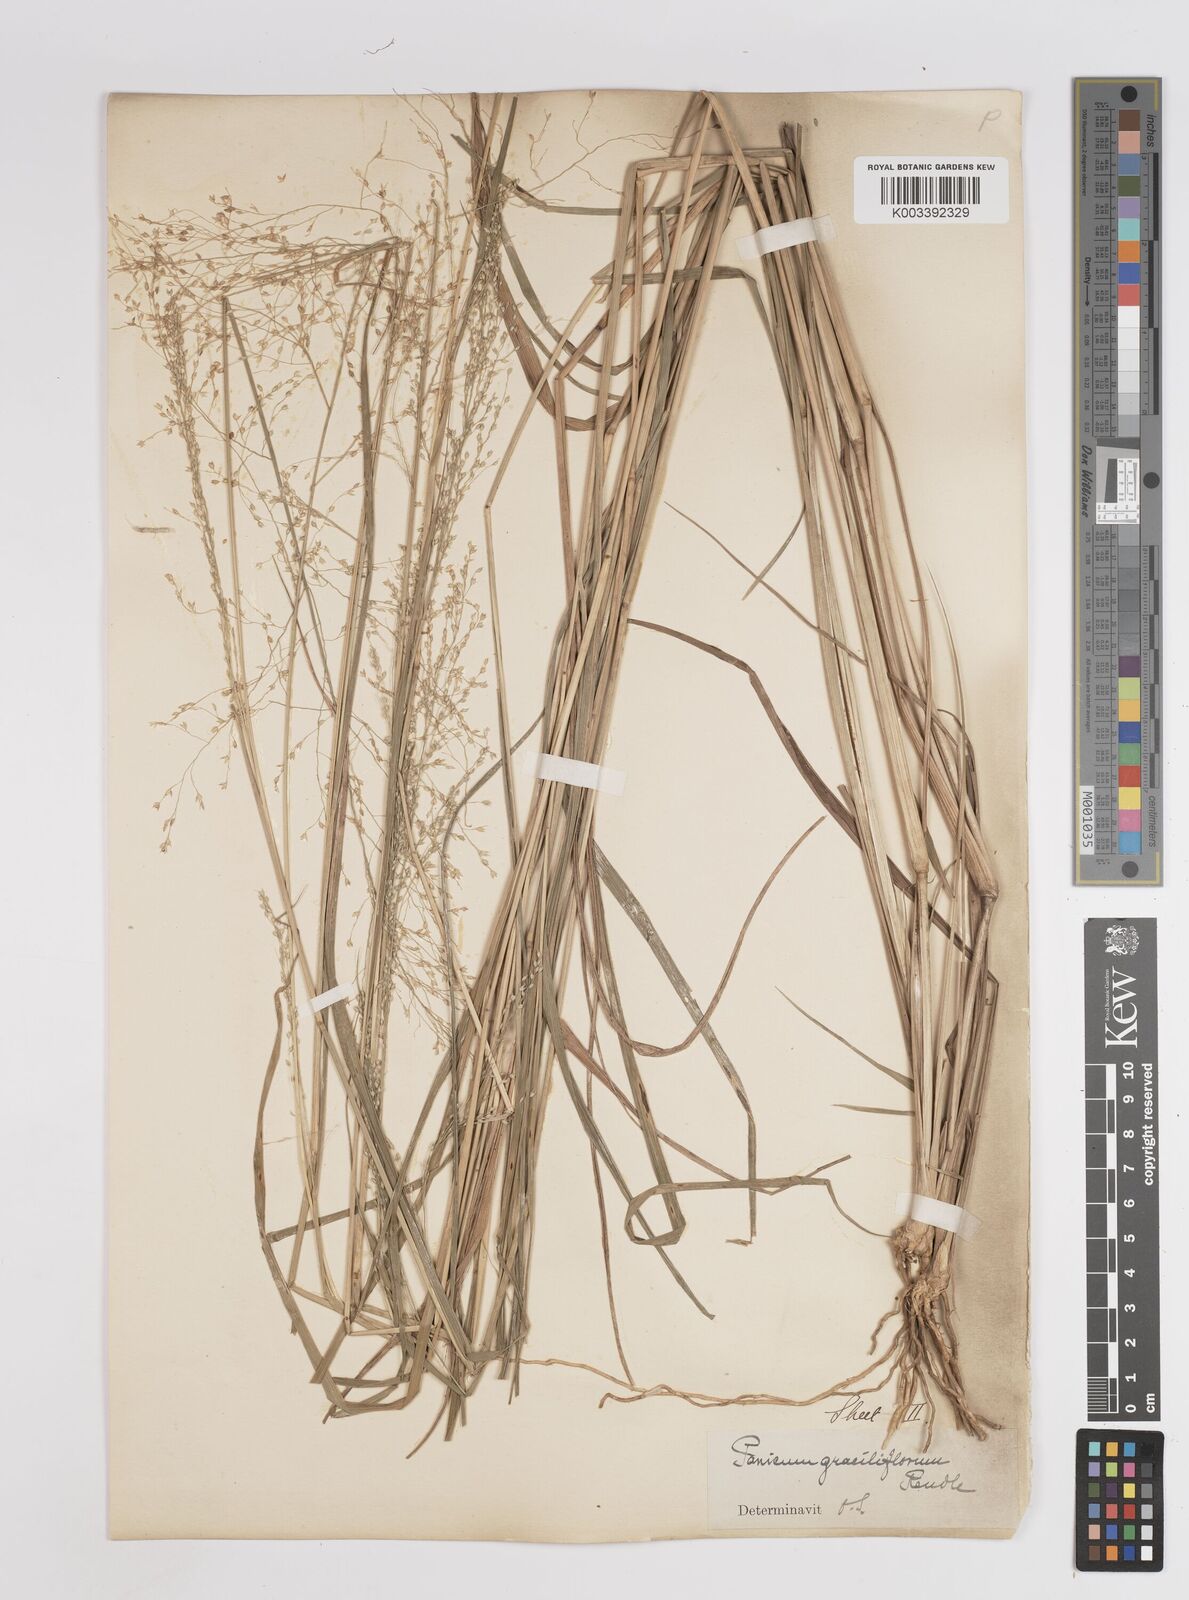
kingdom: Plantae
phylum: Tracheophyta
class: Liliopsida
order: Poales
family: Poaceae
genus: Panicum
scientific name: Panicum fluviicola
